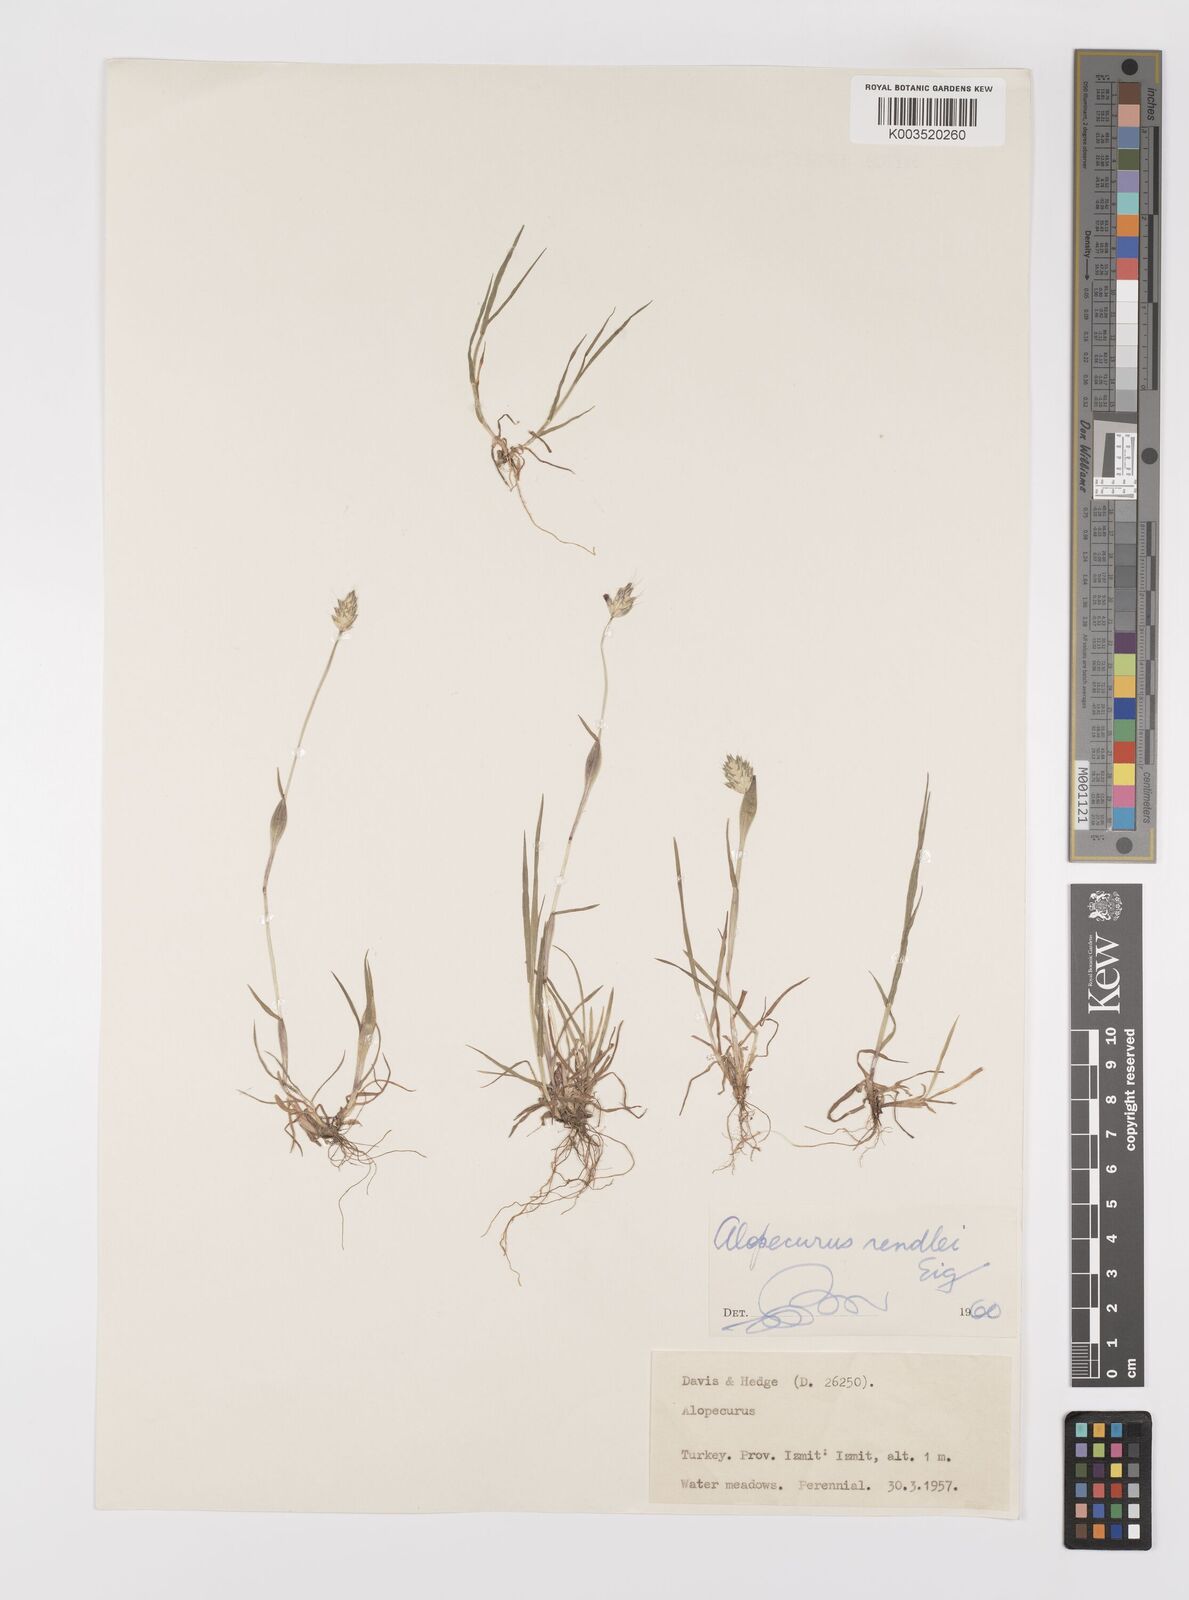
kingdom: Plantae
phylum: Tracheophyta
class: Liliopsida
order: Poales
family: Poaceae
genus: Alopecurus
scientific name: Alopecurus rendlei
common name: Rendle's meadow foxtail
